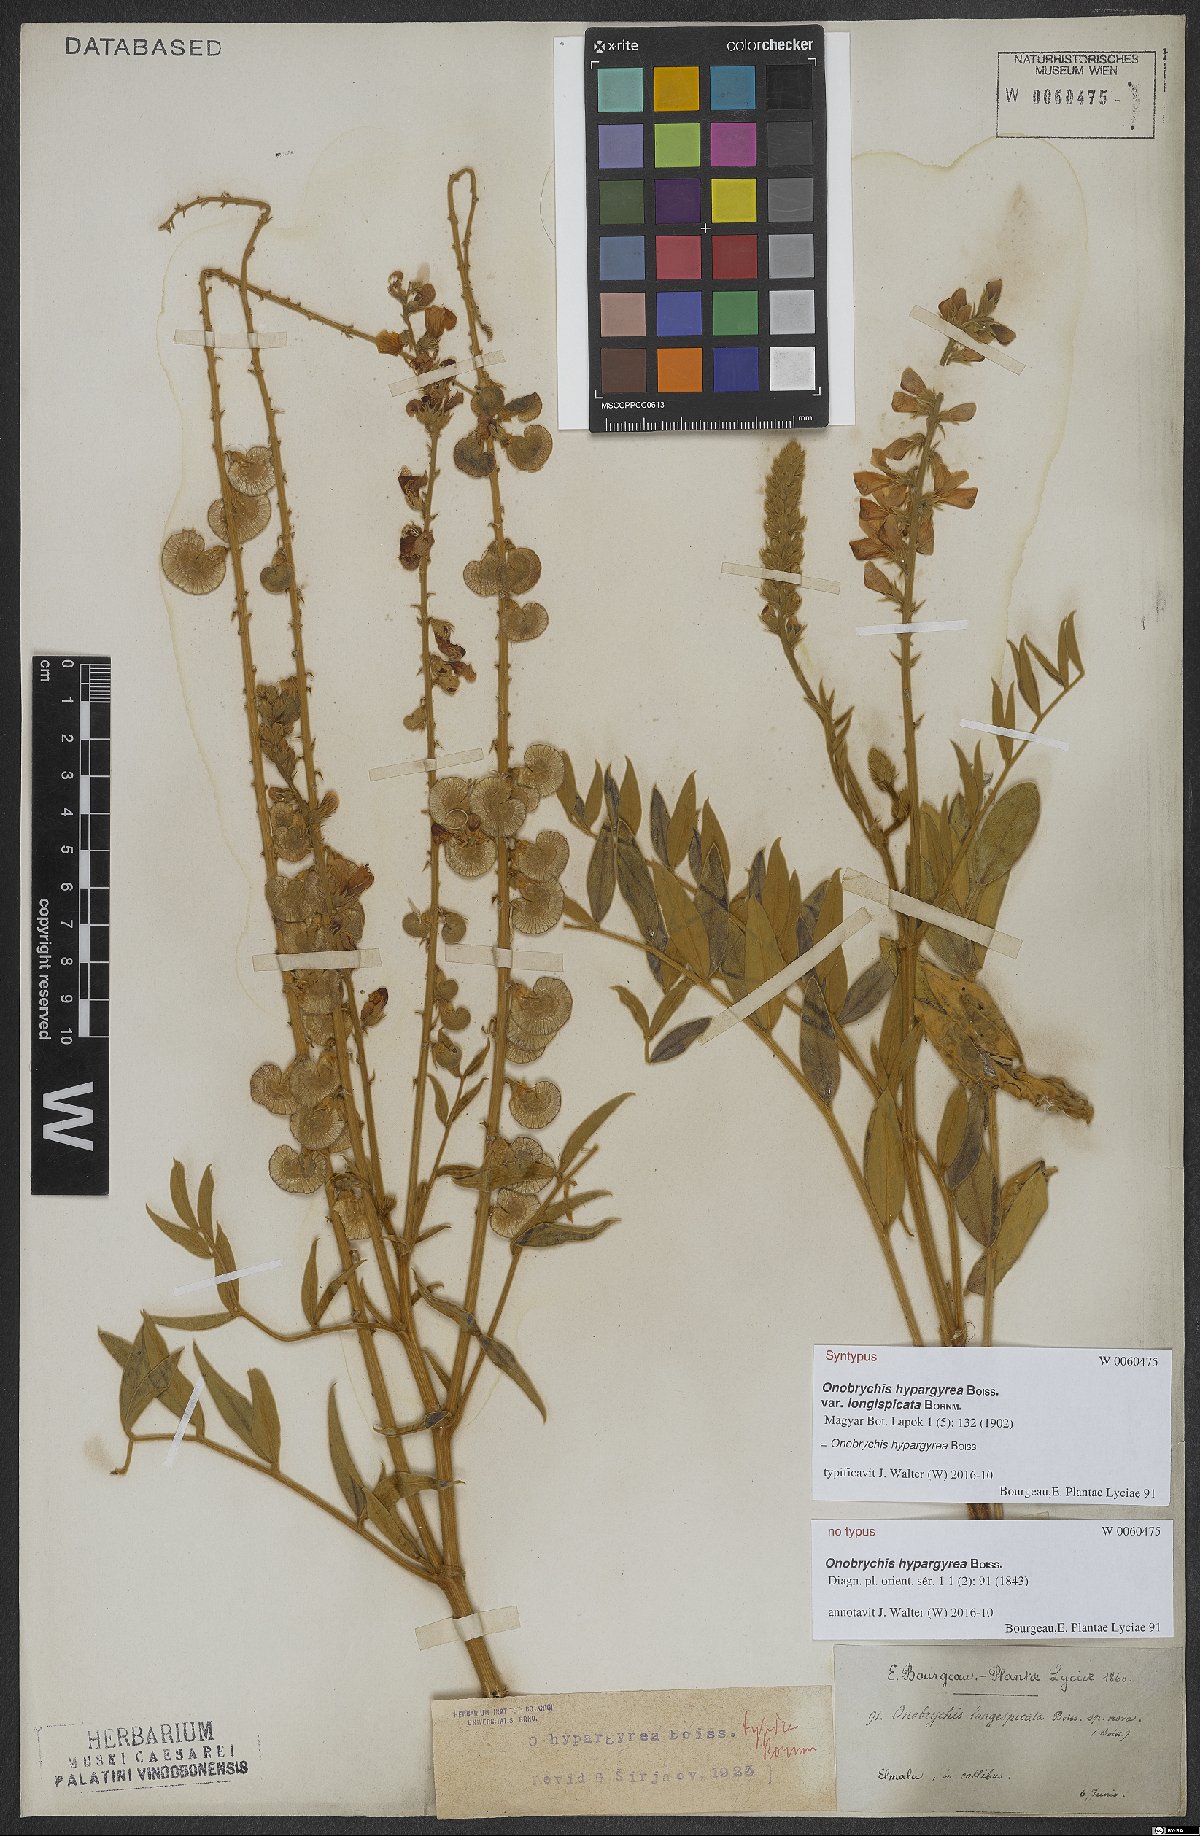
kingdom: Plantae
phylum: Tracheophyta
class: Magnoliopsida
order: Fabales
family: Fabaceae
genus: Onobrychis
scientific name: Onobrychis hypargyrea
